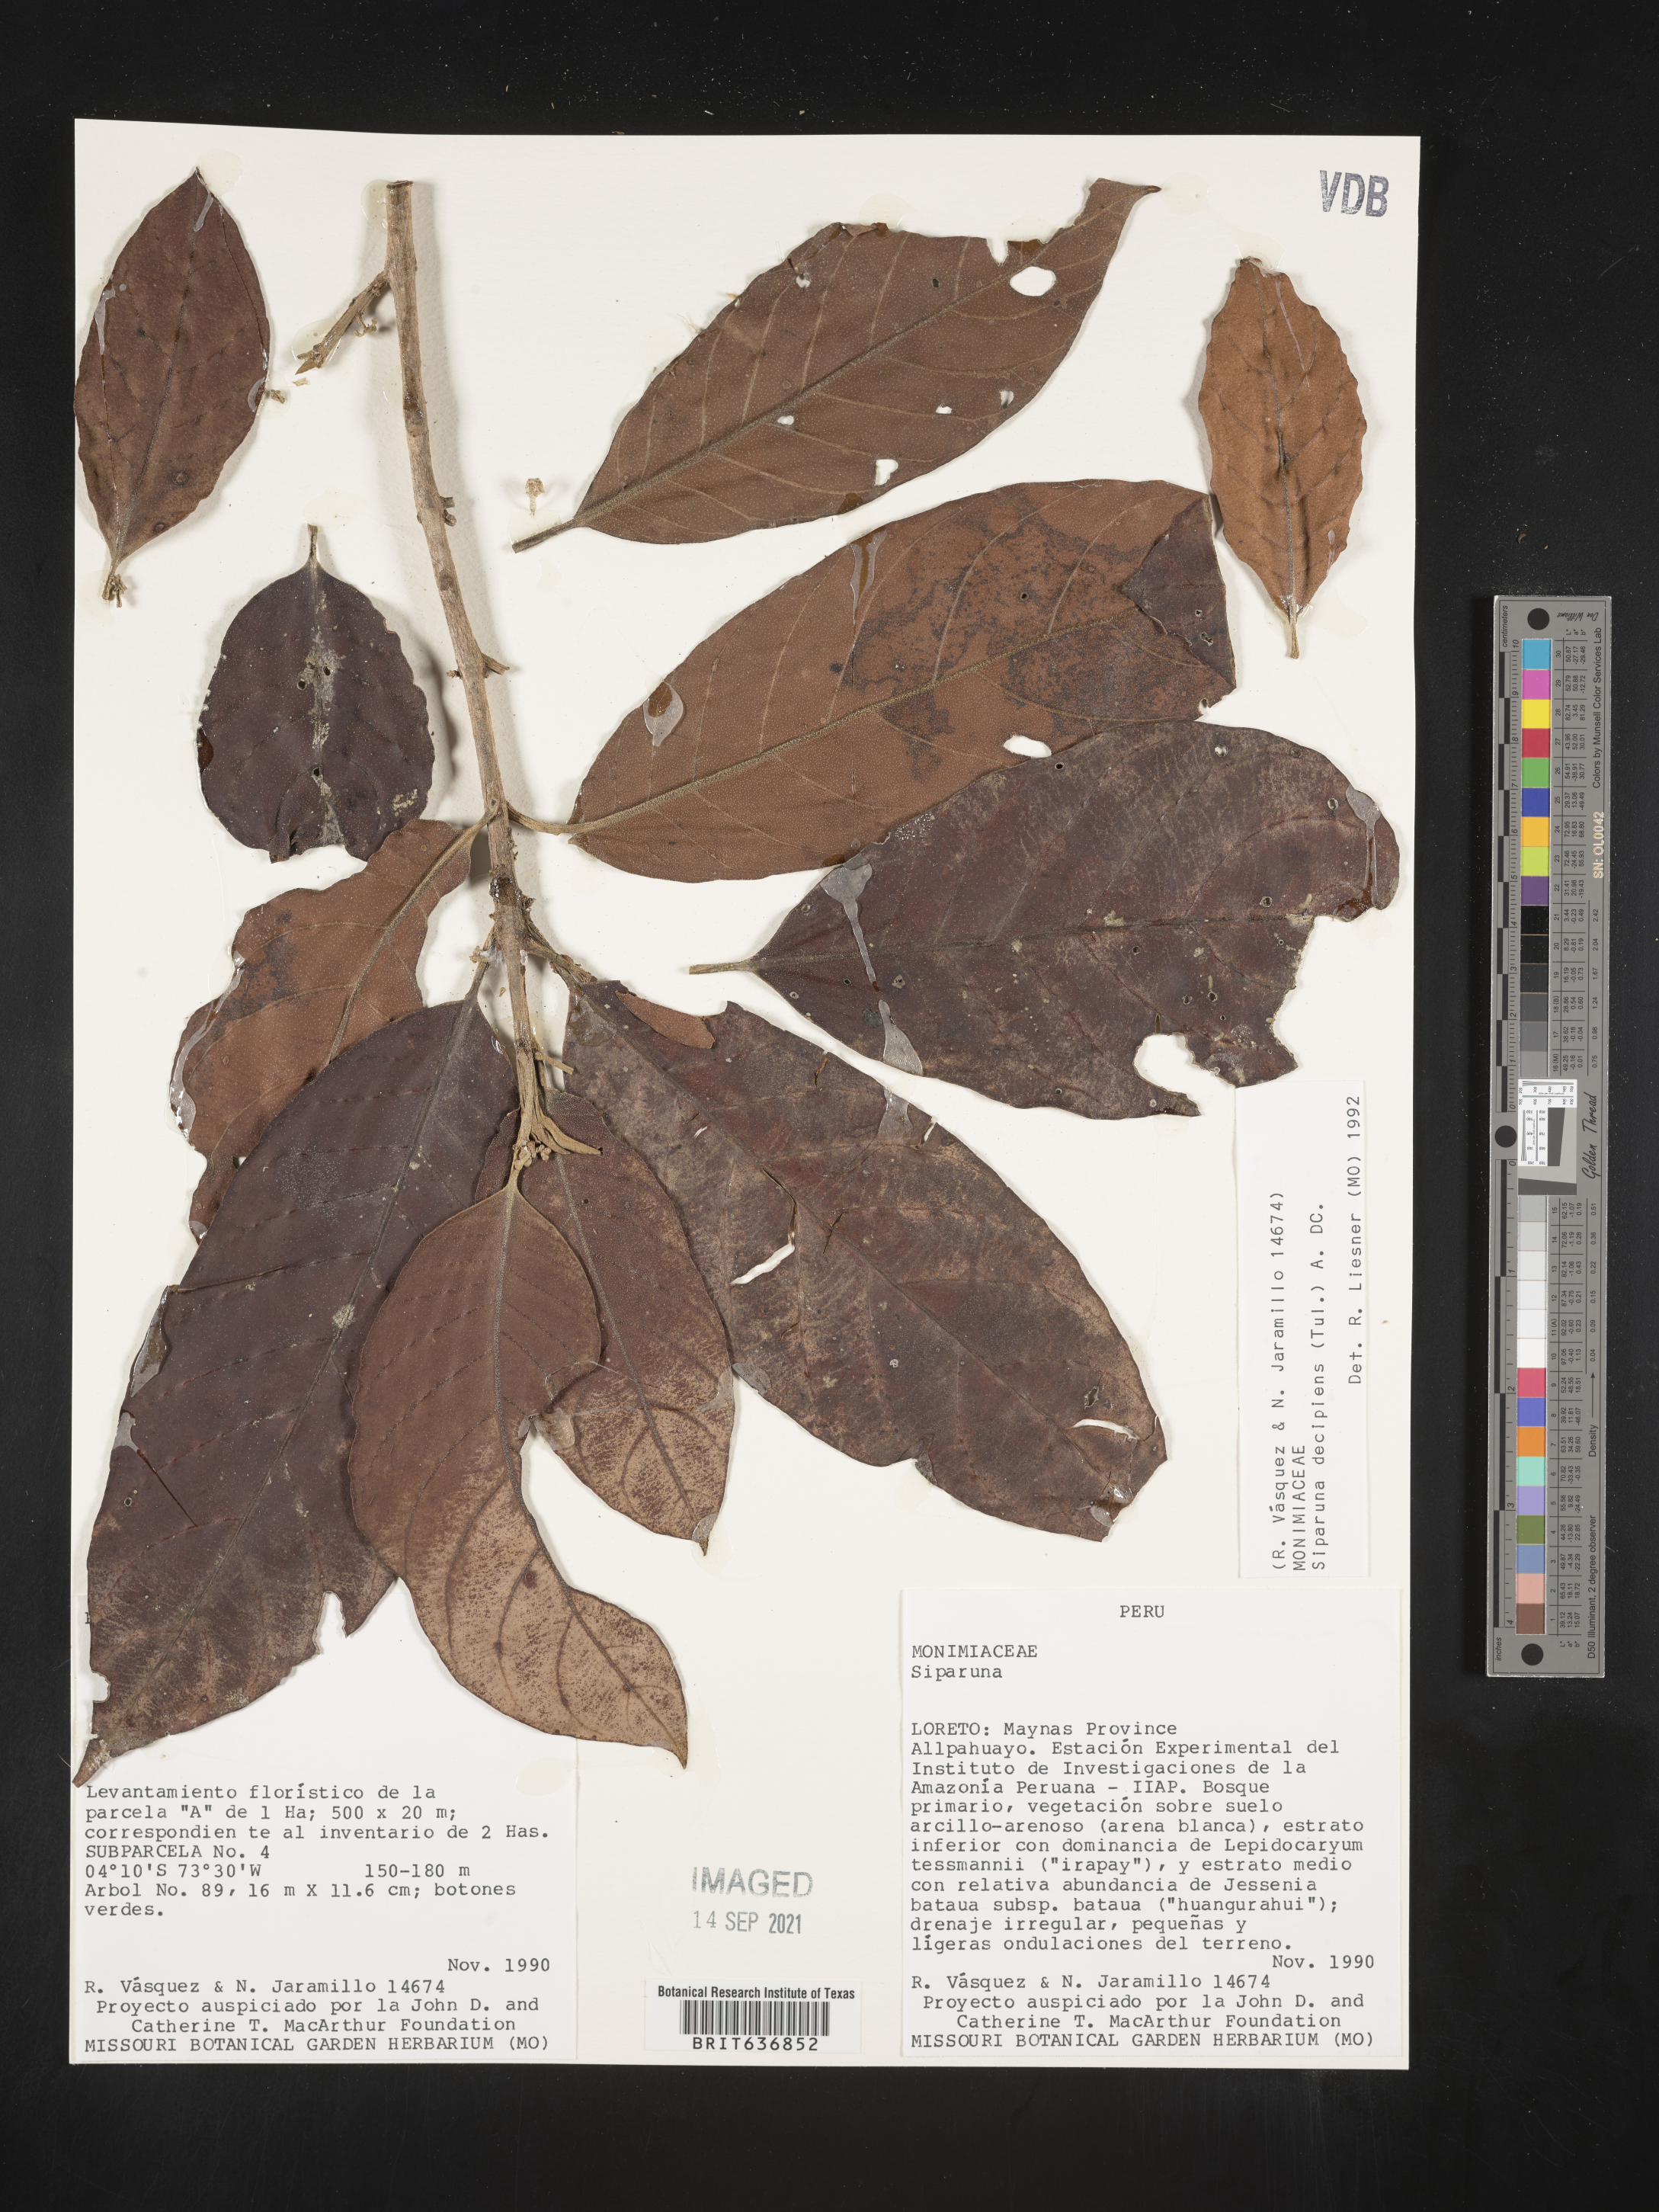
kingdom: Plantae
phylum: Tracheophyta
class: Magnoliopsida
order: Laurales
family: Siparunaceae
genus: Siparuna
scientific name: Siparuna
